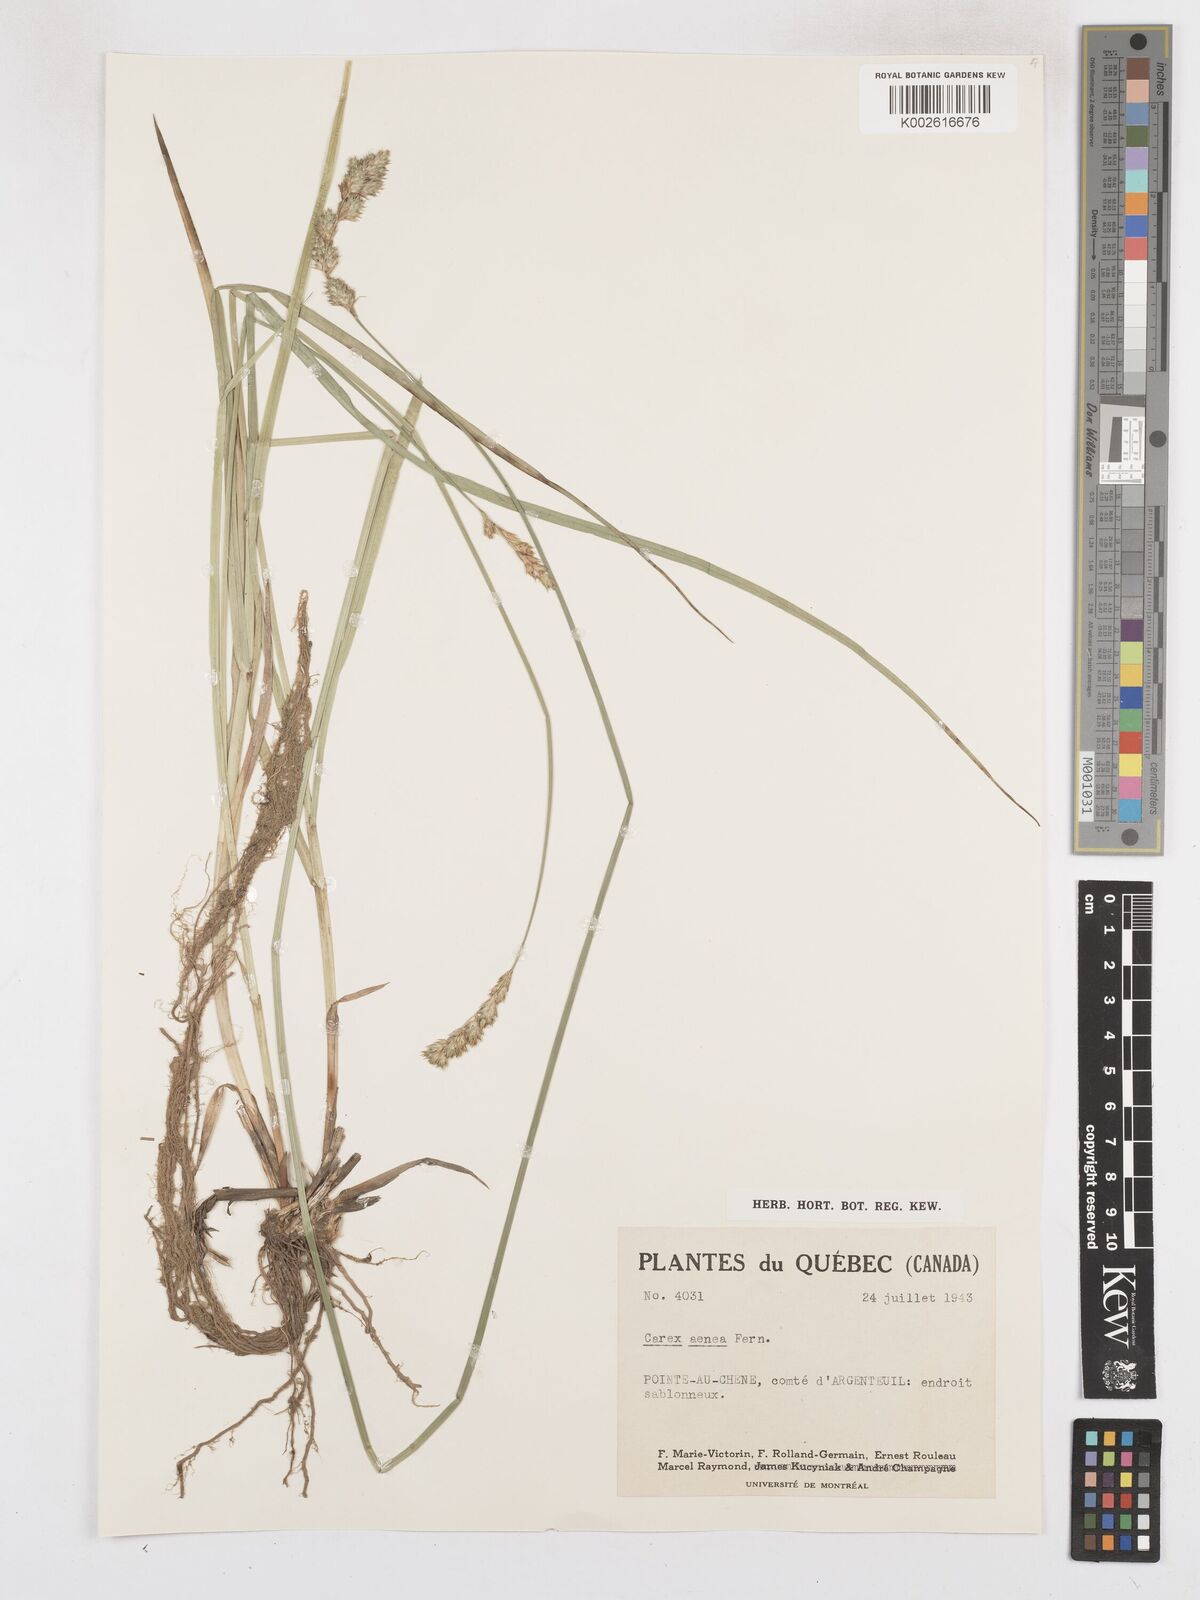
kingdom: Plantae
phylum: Tracheophyta
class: Liliopsida
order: Poales
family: Cyperaceae
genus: Carex
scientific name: Carex foenea
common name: Bronze sedge
